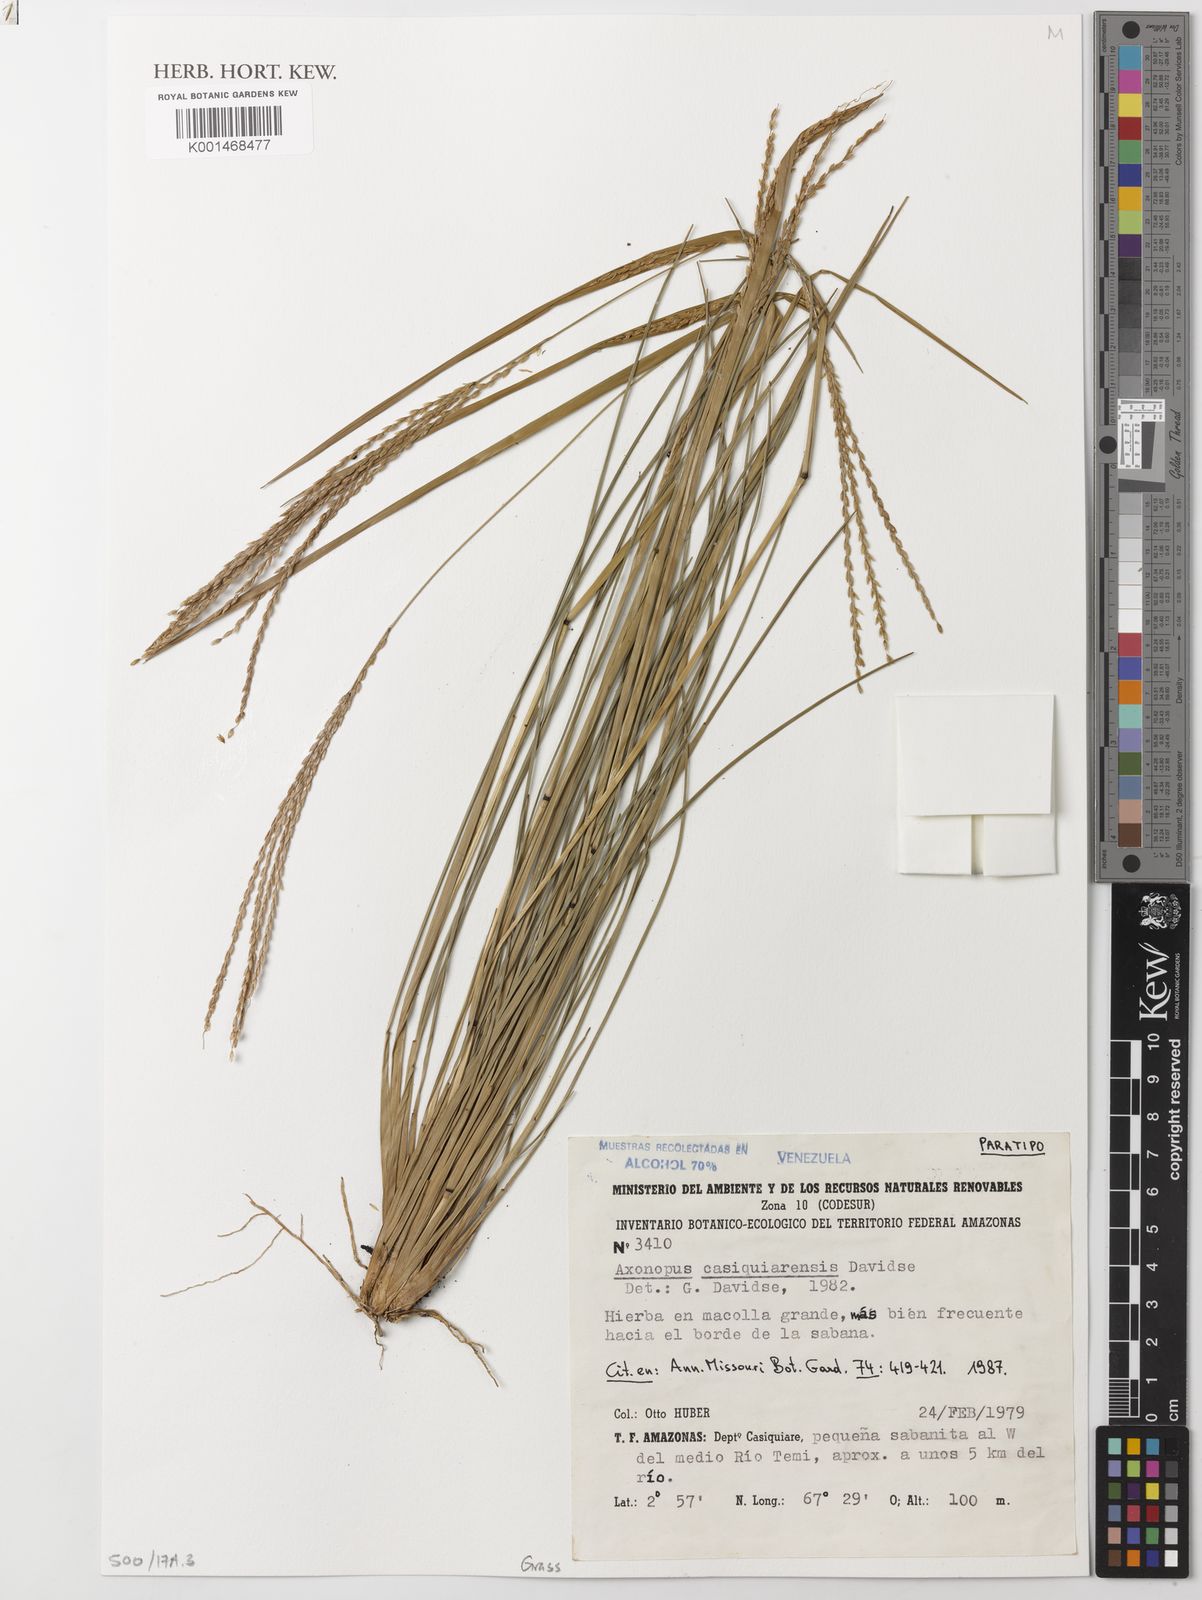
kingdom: Plantae
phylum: Tracheophyta
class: Liliopsida
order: Poales
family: Poaceae
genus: Axonopus
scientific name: Axonopus casiquiarensis
